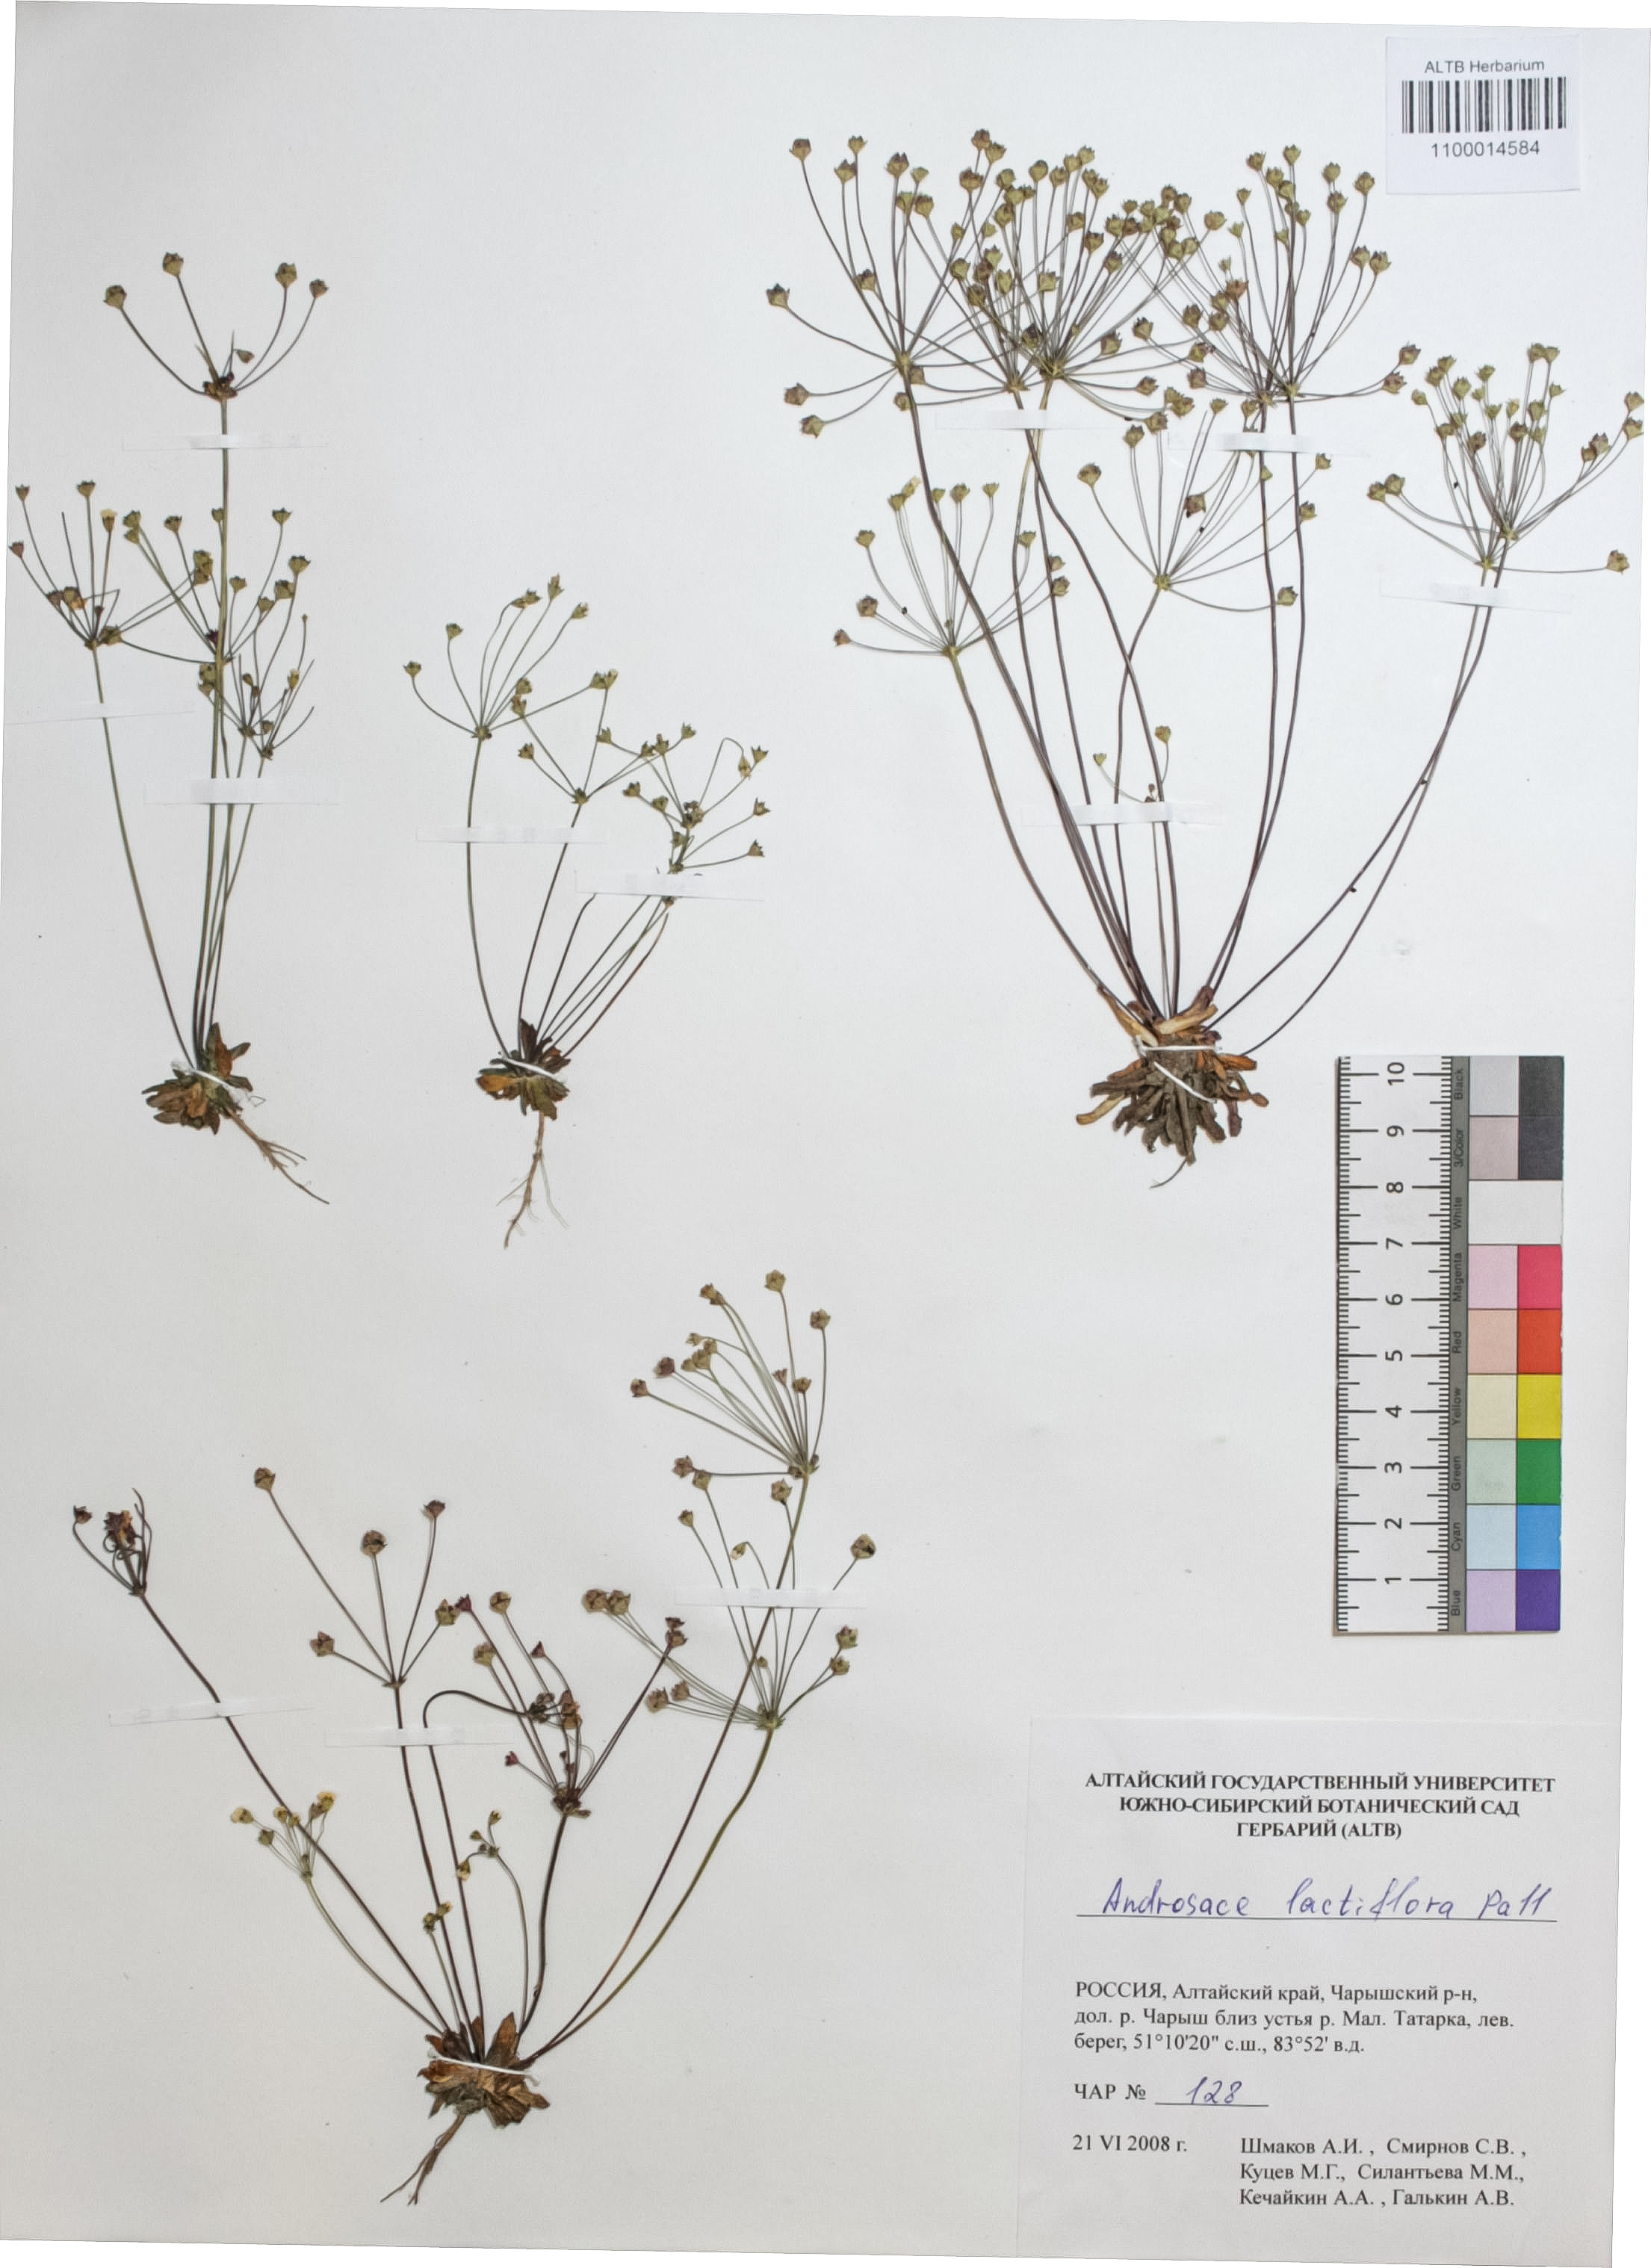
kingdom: Plantae
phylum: Tracheophyta
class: Magnoliopsida
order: Ericales
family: Primulaceae
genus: Androsace
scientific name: Androsace lactiflora
